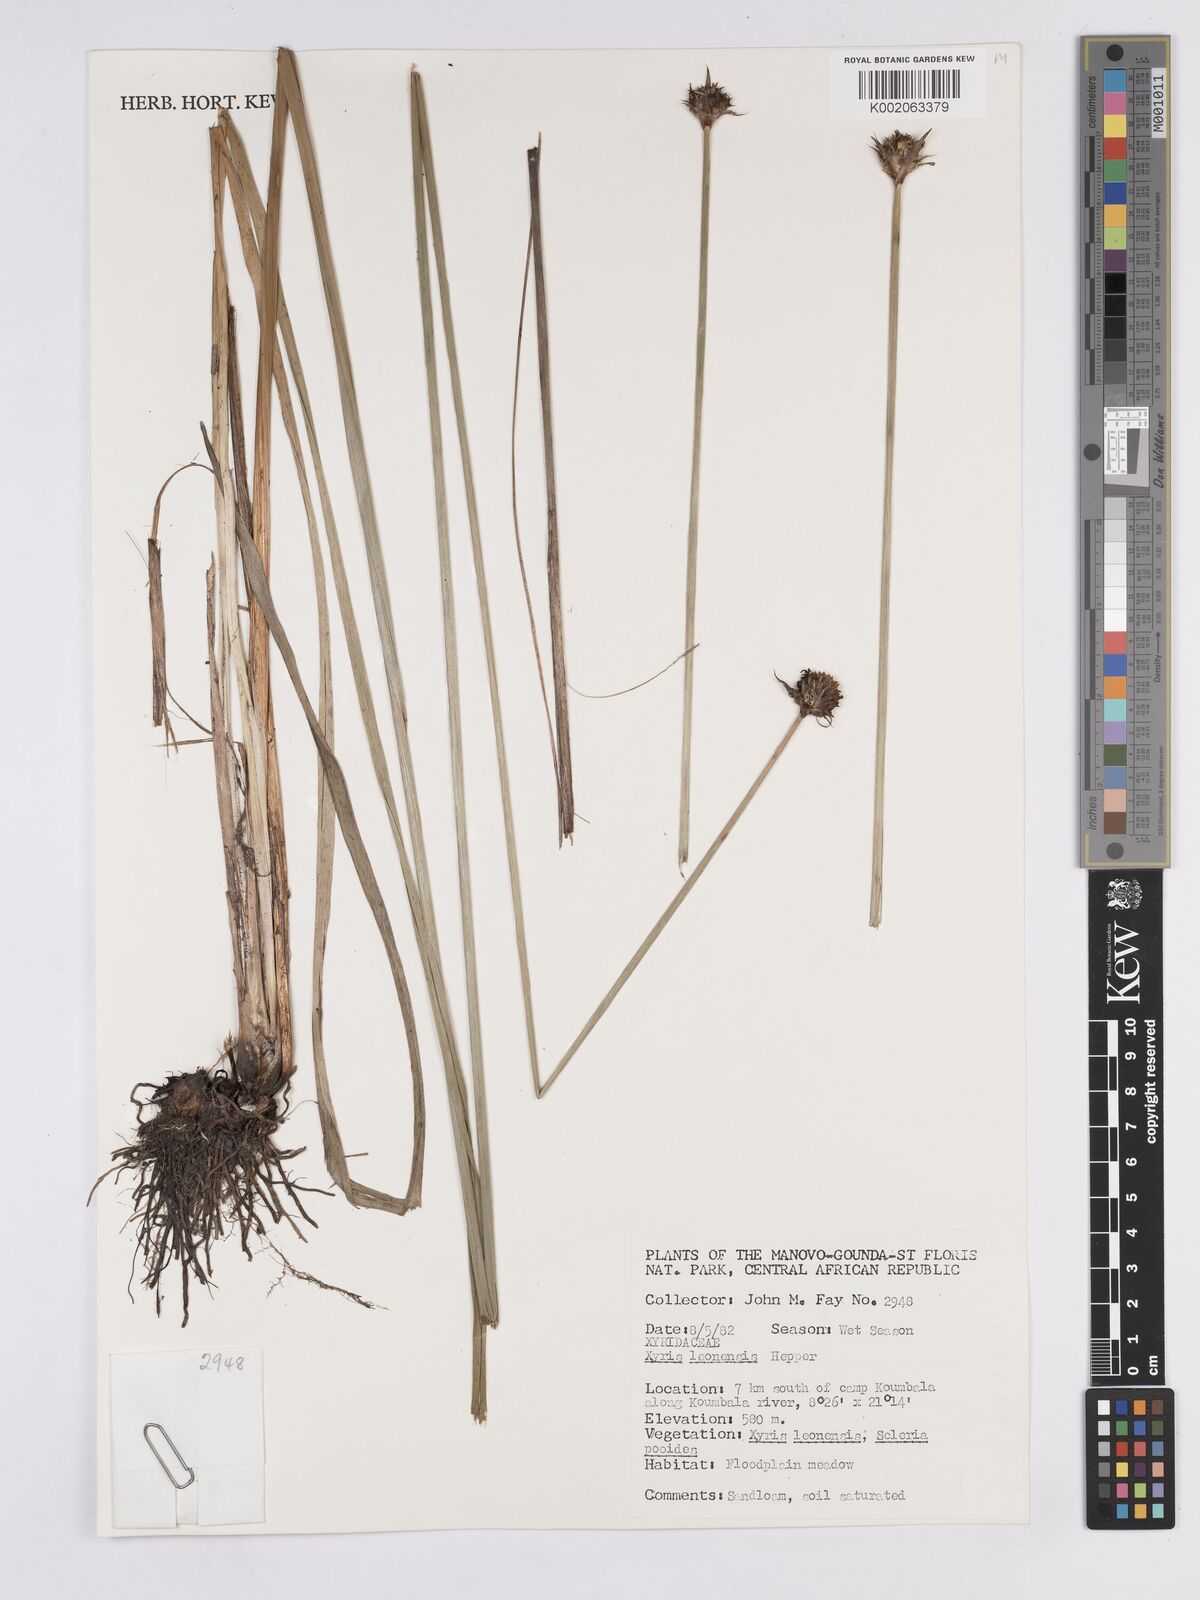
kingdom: Plantae
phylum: Tracheophyta
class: Liliopsida
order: Poales
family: Xyridaceae
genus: Xyris
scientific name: Xyris leonensis
